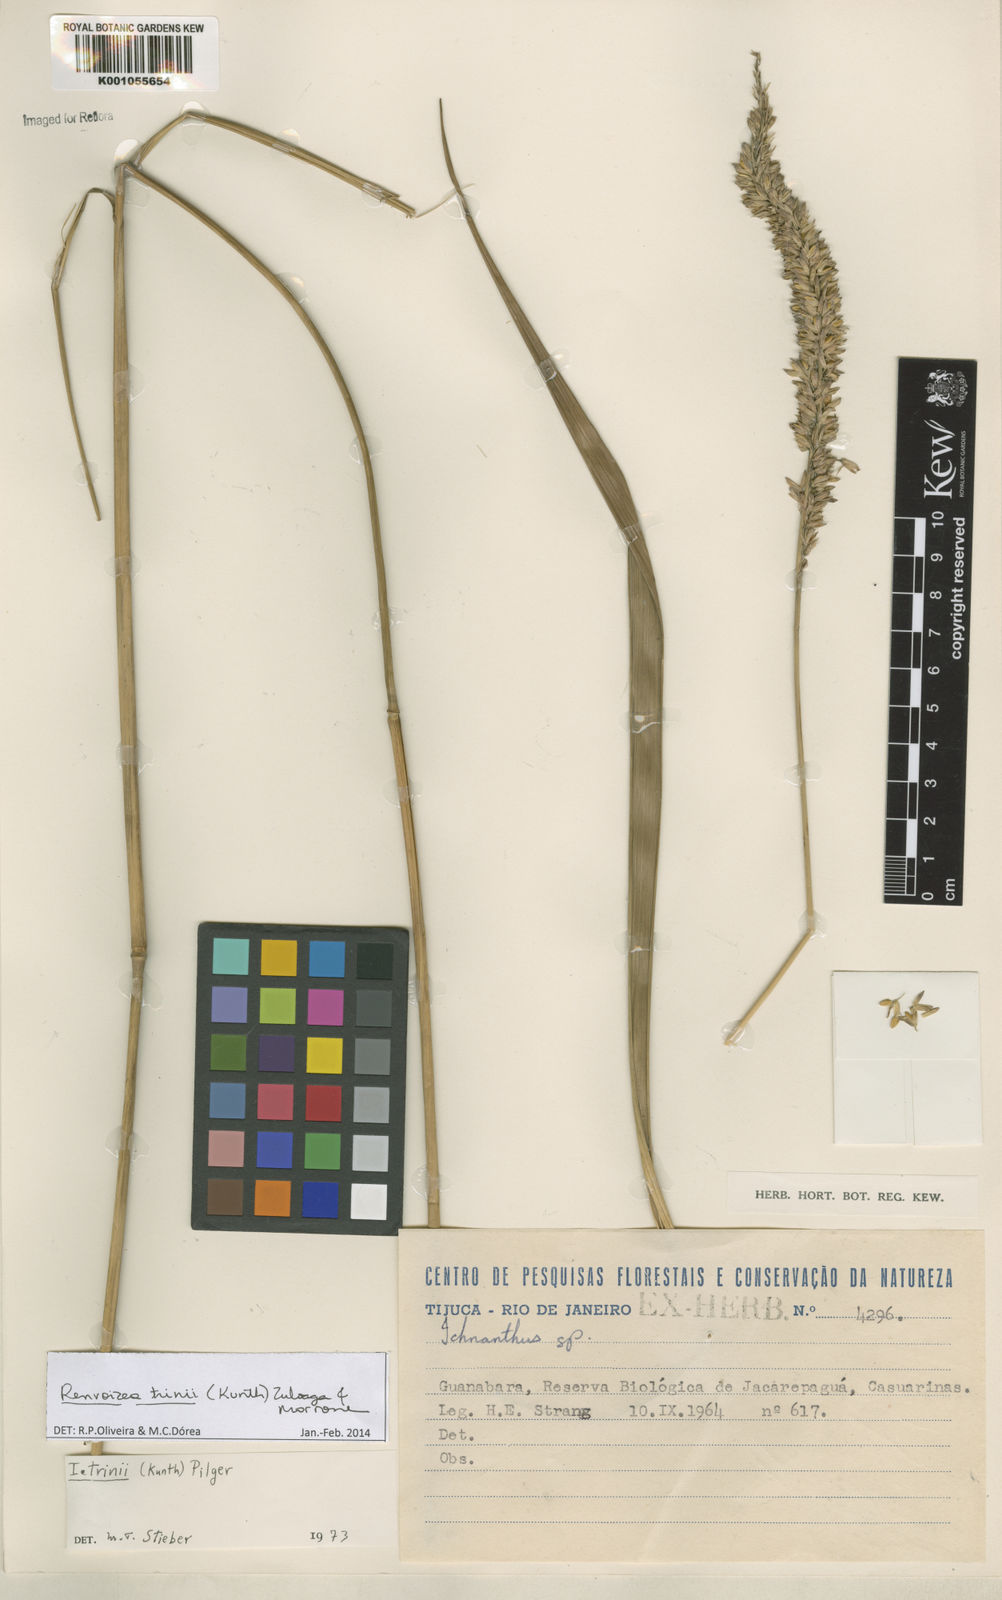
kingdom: Plantae
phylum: Tracheophyta
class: Liliopsida
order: Poales
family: Poaceae
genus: Renvoizea
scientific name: Renvoizea trinii
